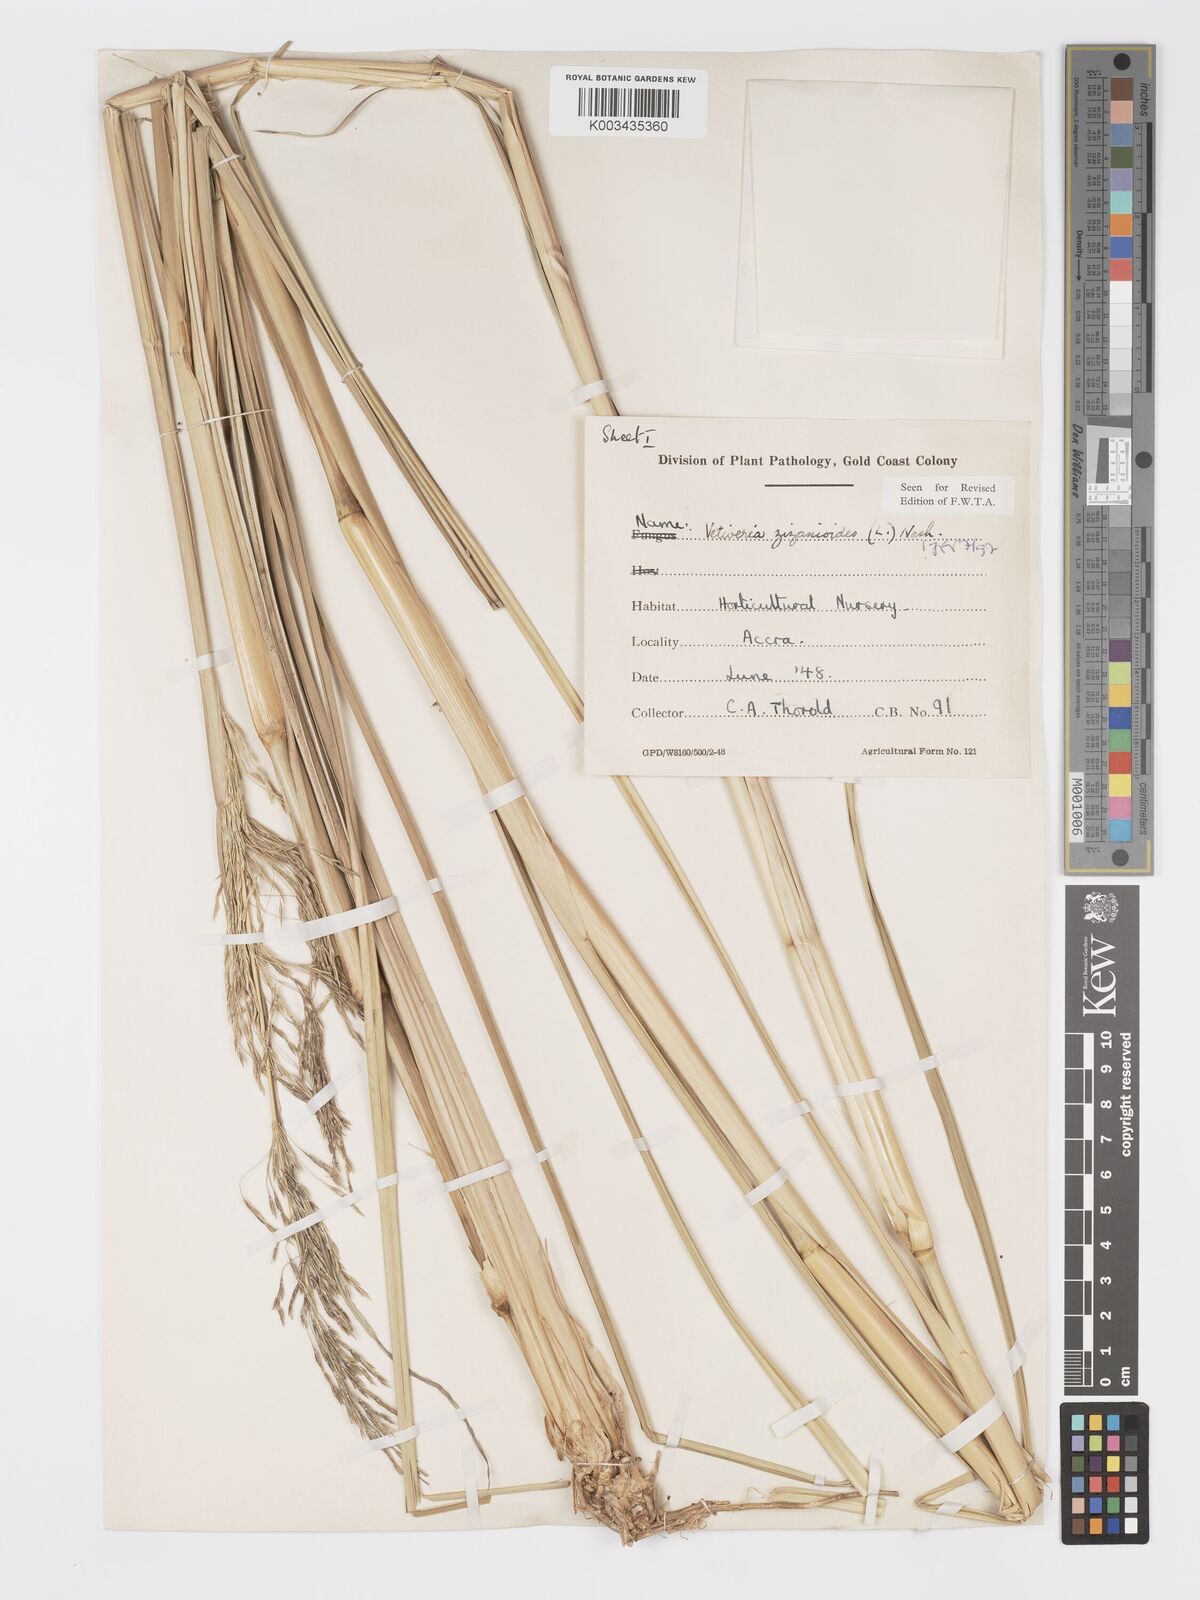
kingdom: Plantae
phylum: Tracheophyta
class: Liliopsida
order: Poales
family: Poaceae
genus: Chrysopogon
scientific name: Chrysopogon zizanioides
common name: False beardgrass
